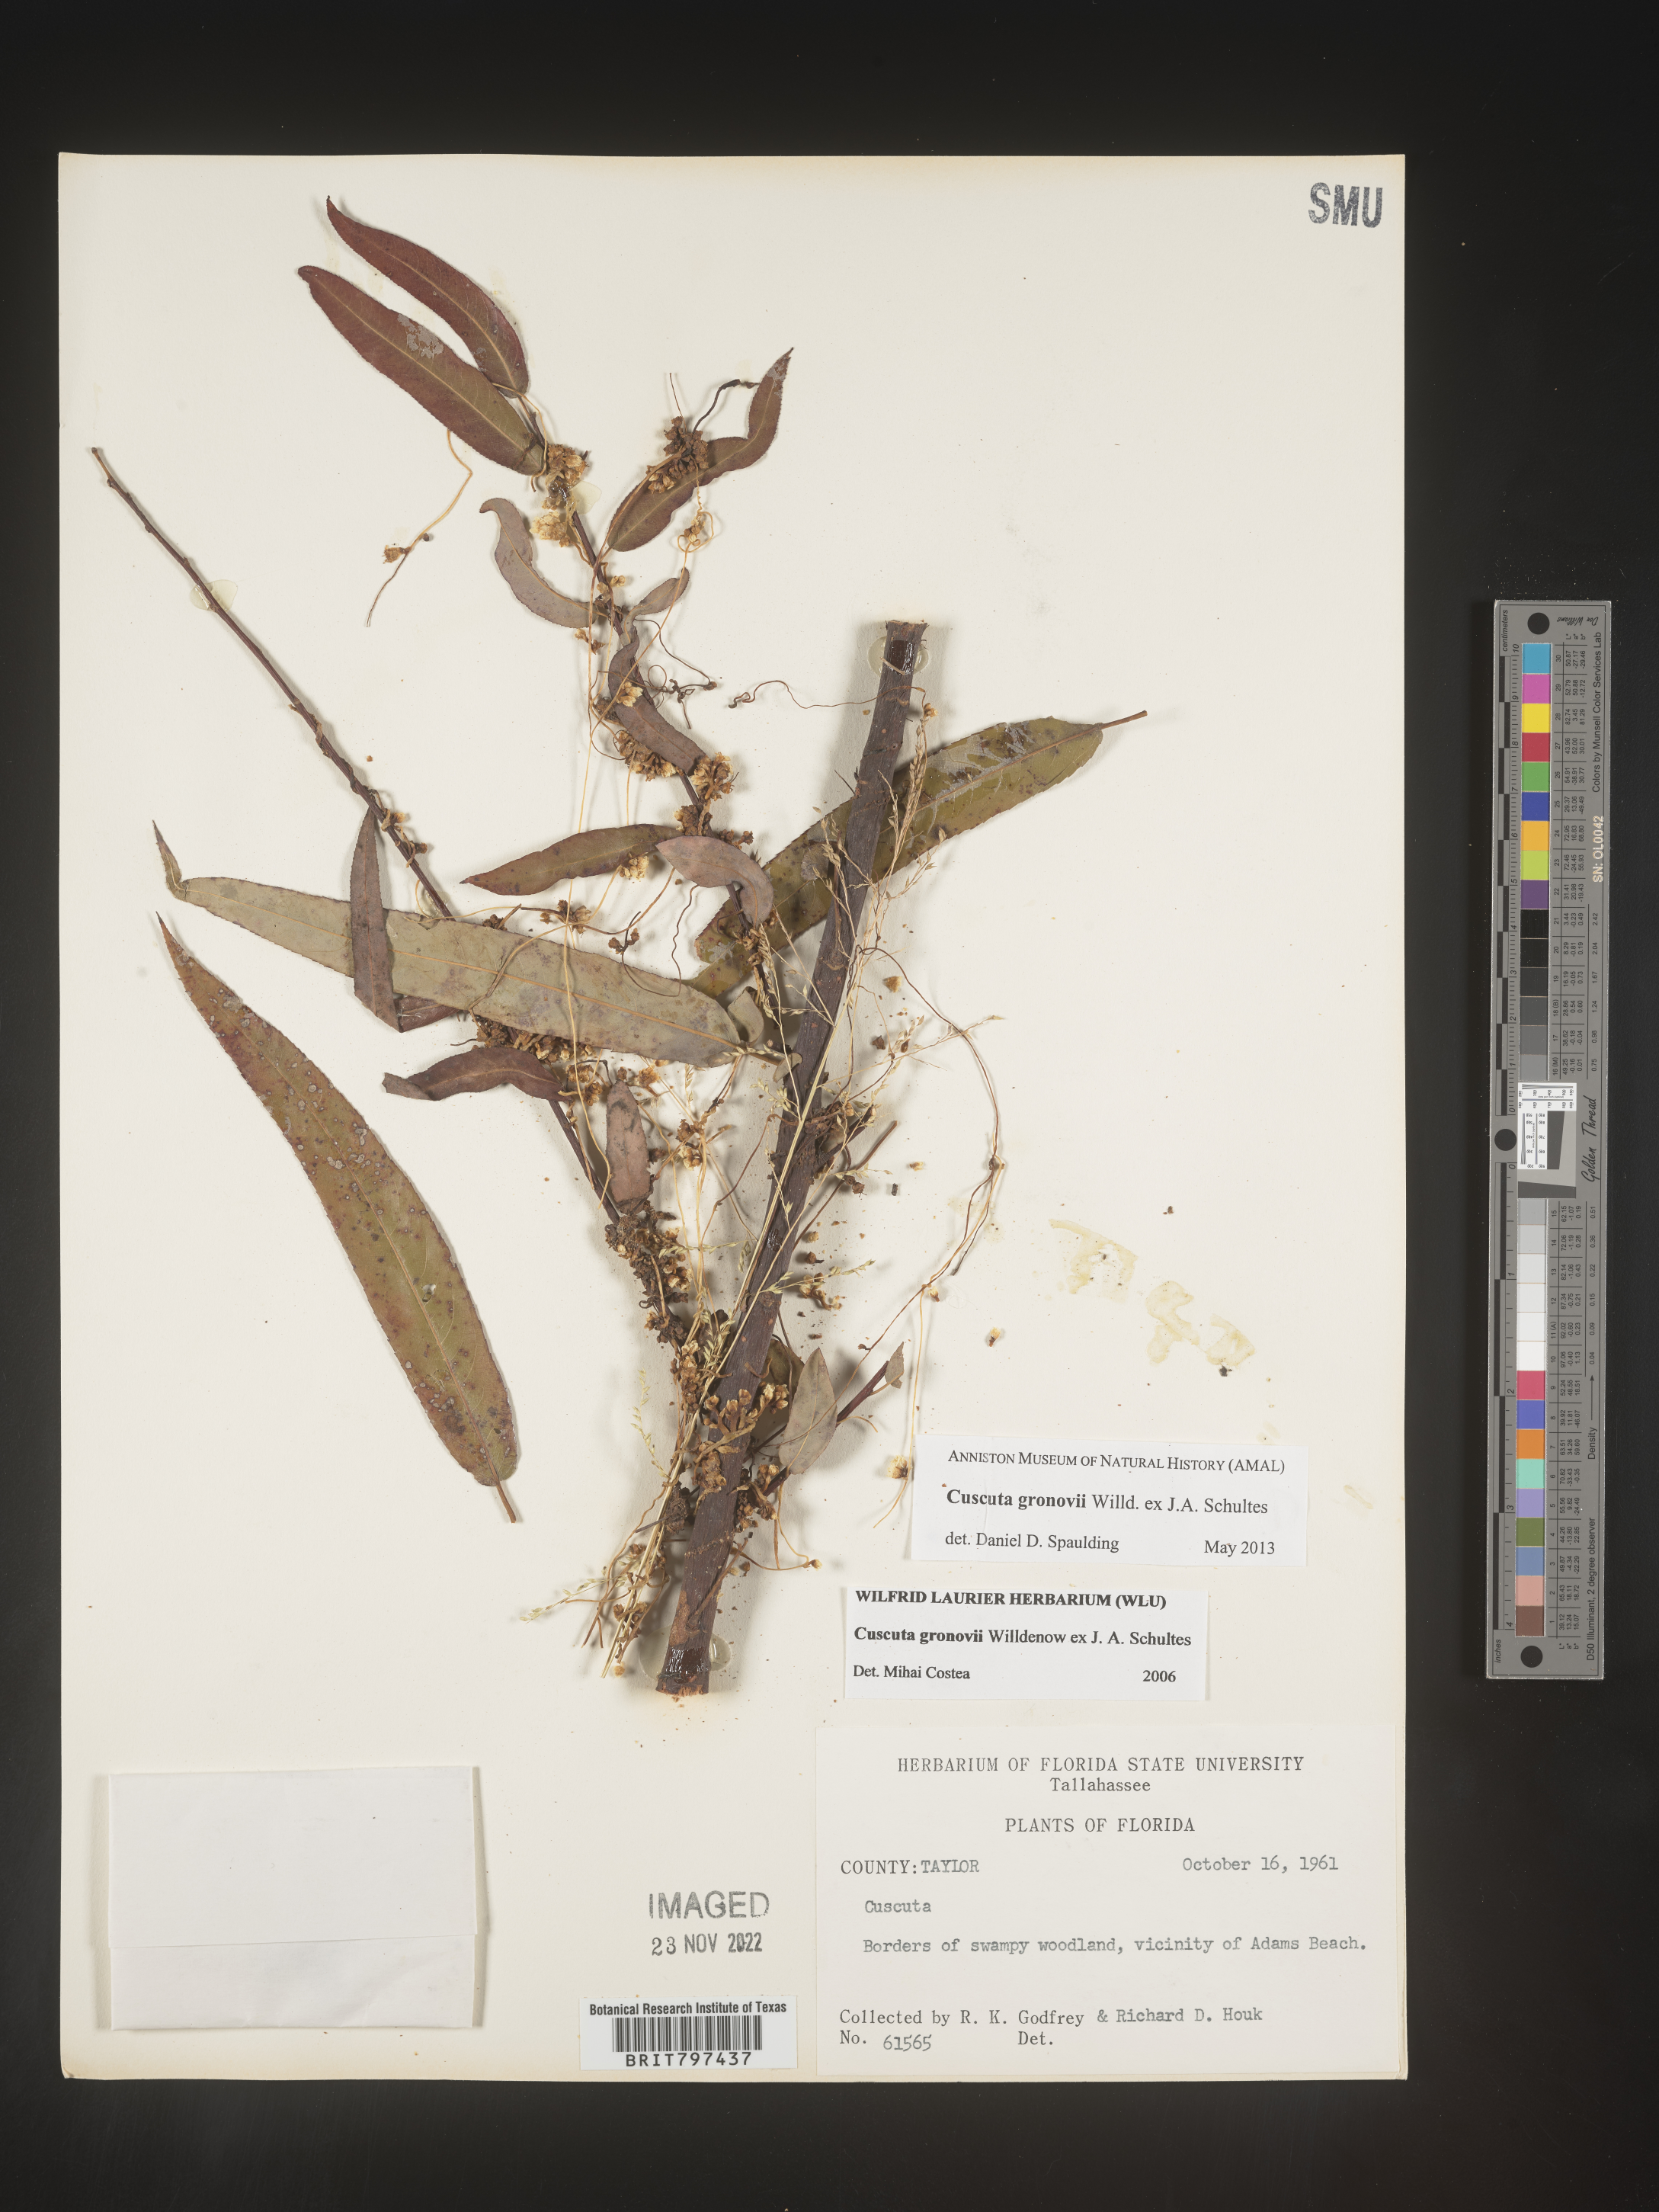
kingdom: Plantae
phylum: Tracheophyta
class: Magnoliopsida
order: Solanales
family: Convolvulaceae
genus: Cuscuta
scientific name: Cuscuta gronovii
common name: Common dodder
